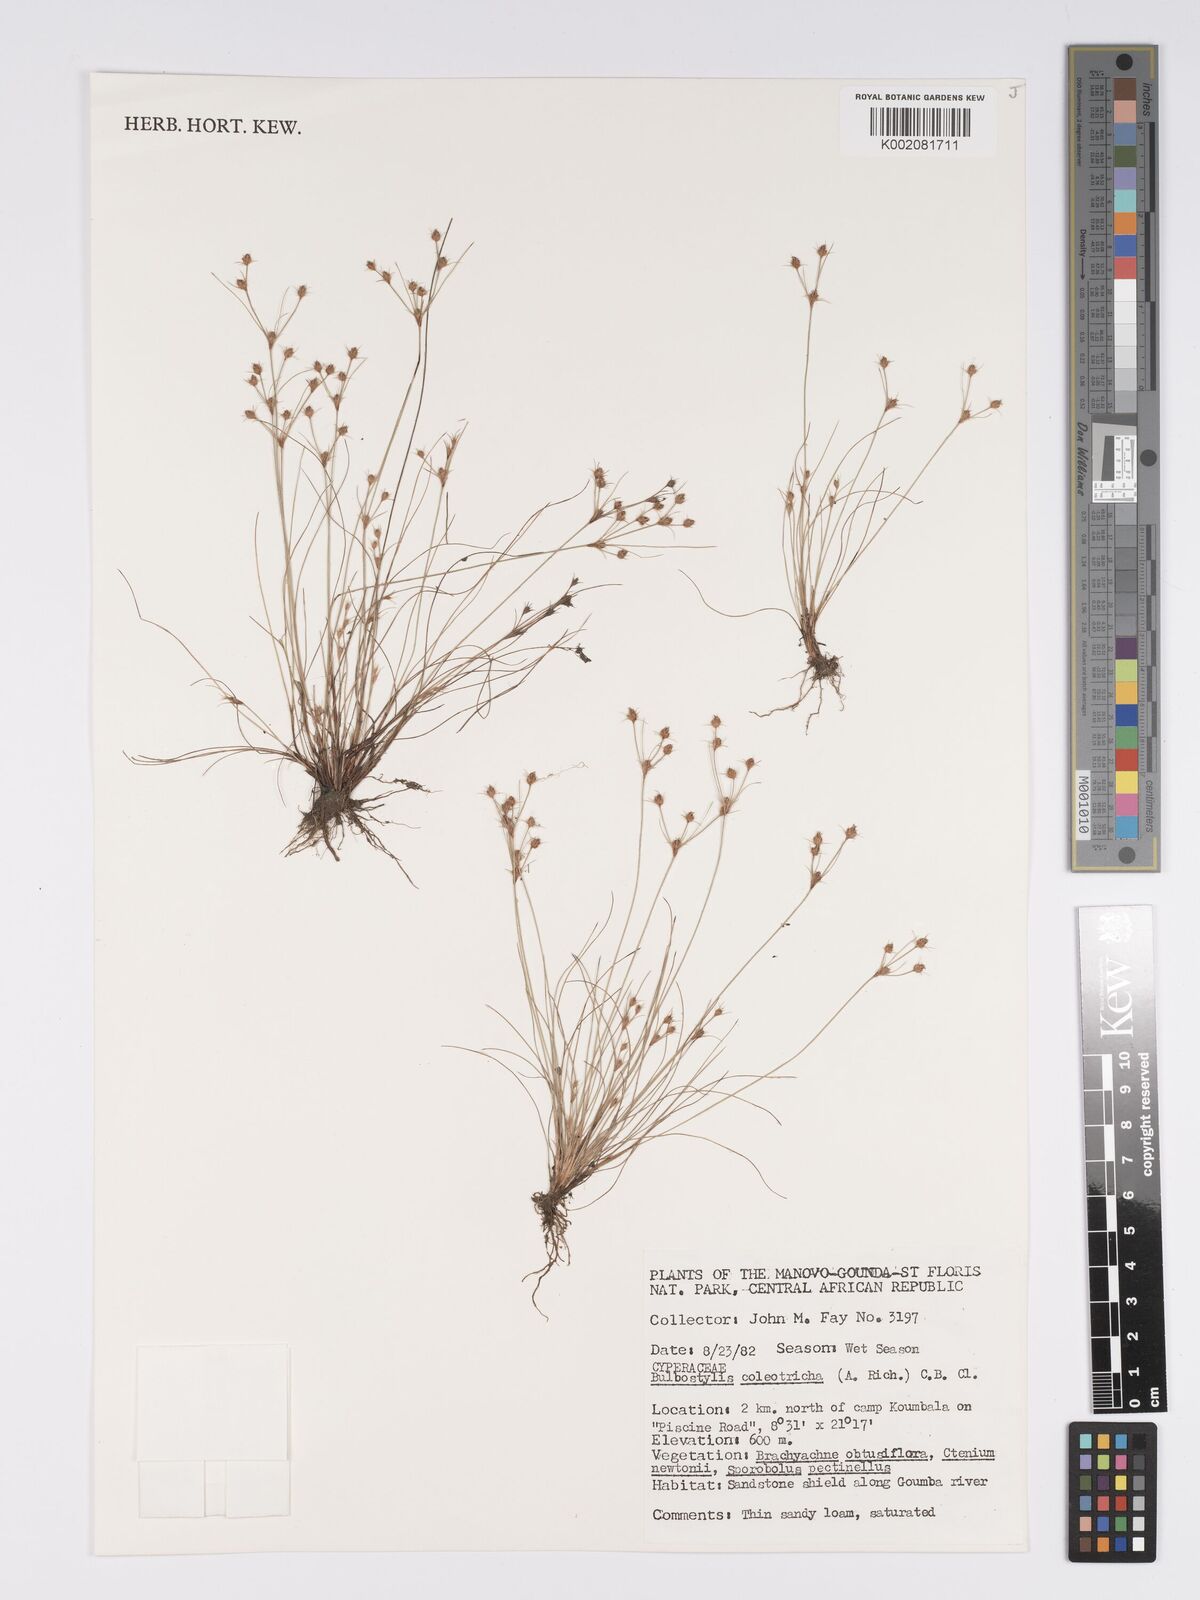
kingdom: Plantae
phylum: Tracheophyta
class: Liliopsida
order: Poales
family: Cyperaceae
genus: Bulbostylis
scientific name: Bulbostylis coleotricha
